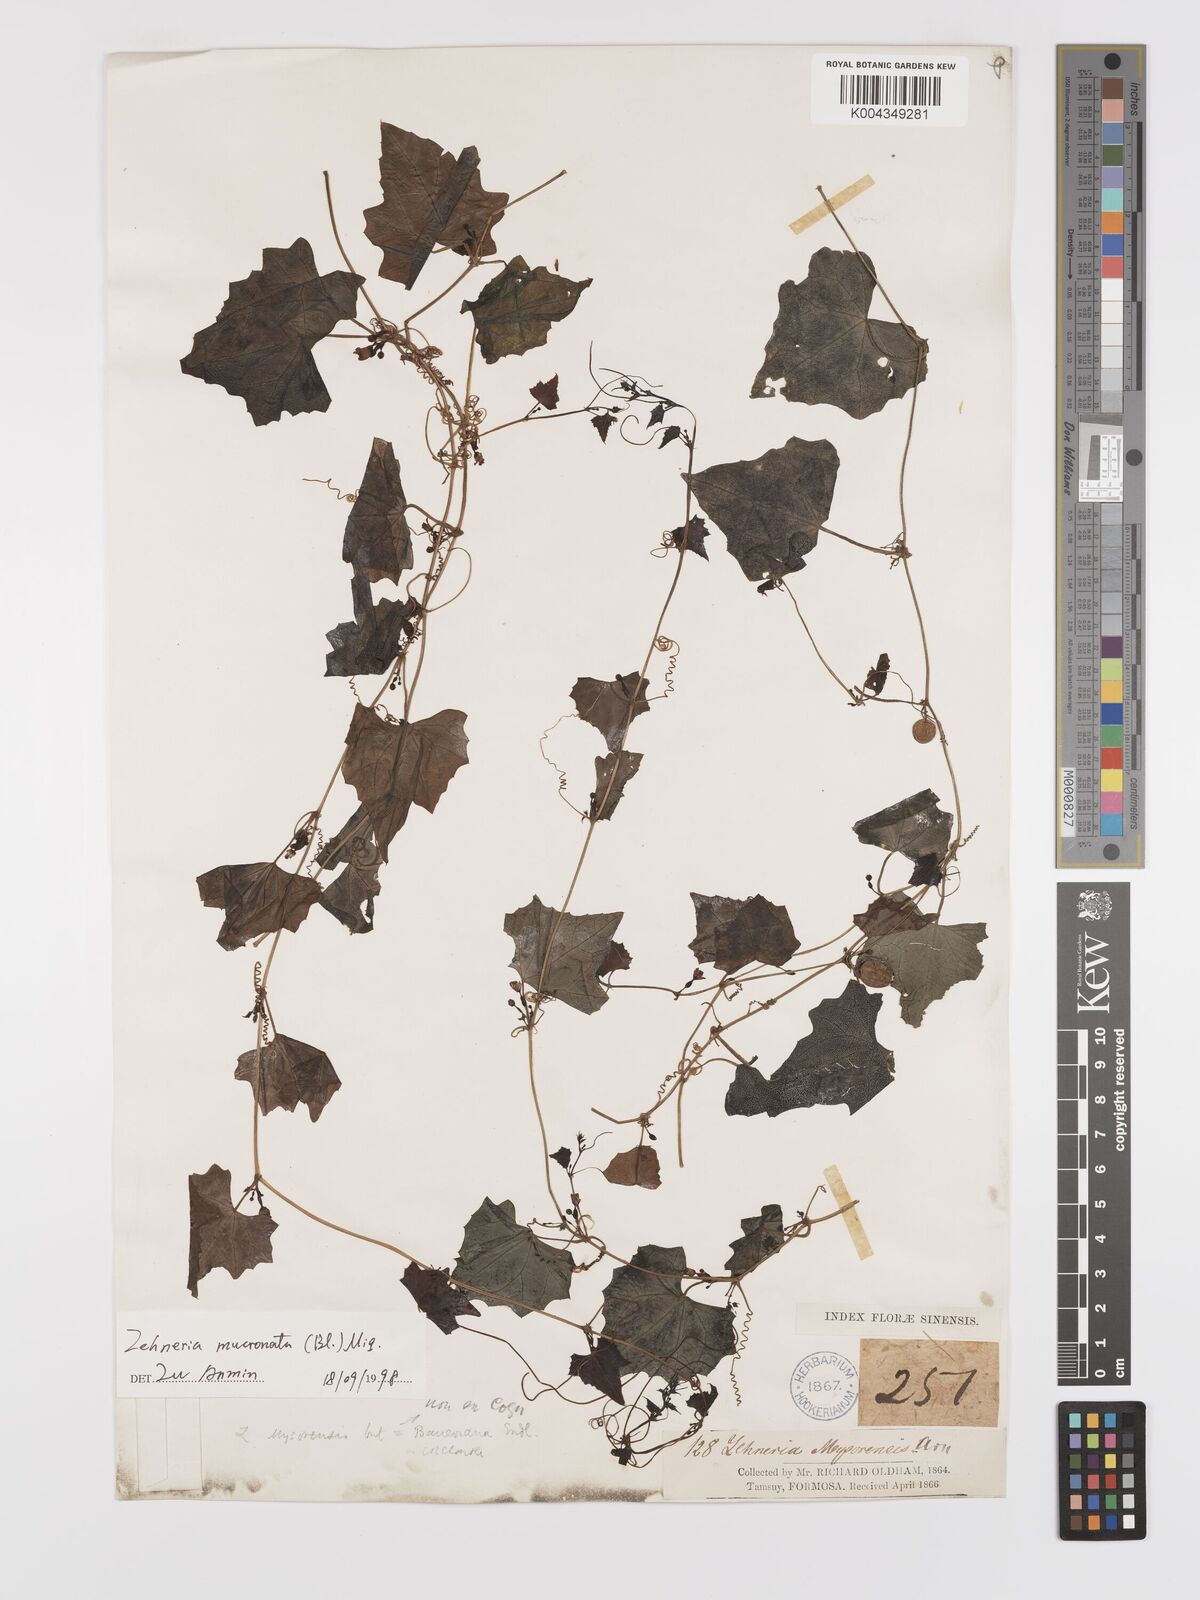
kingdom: Plantae
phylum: Tracheophyta
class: Magnoliopsida
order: Cucurbitales
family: Cucurbitaceae
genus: Zehneria
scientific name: Zehneria mucronata
